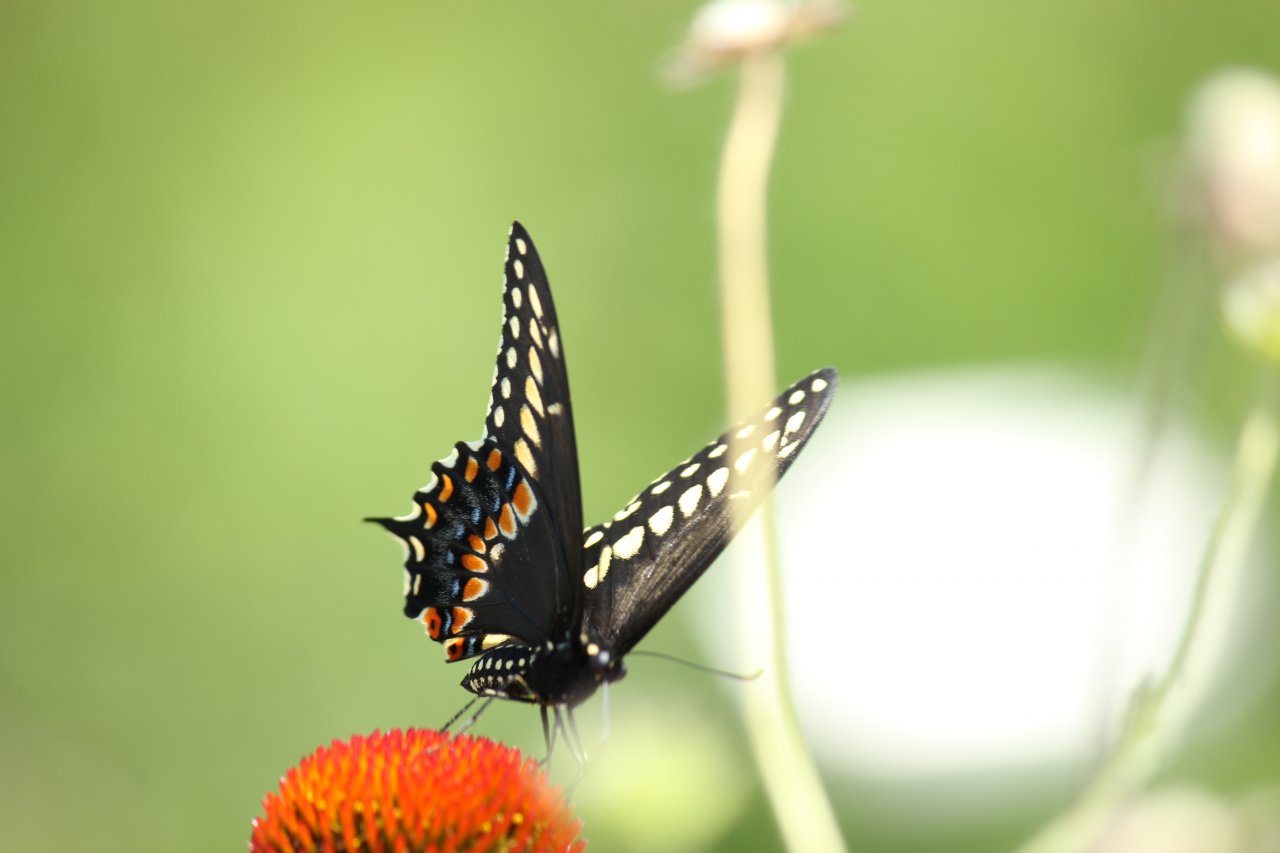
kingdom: Animalia
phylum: Arthropoda
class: Insecta
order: Lepidoptera
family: Papilionidae
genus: Papilio
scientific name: Papilio polyxenes
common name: Black Swallowtail
